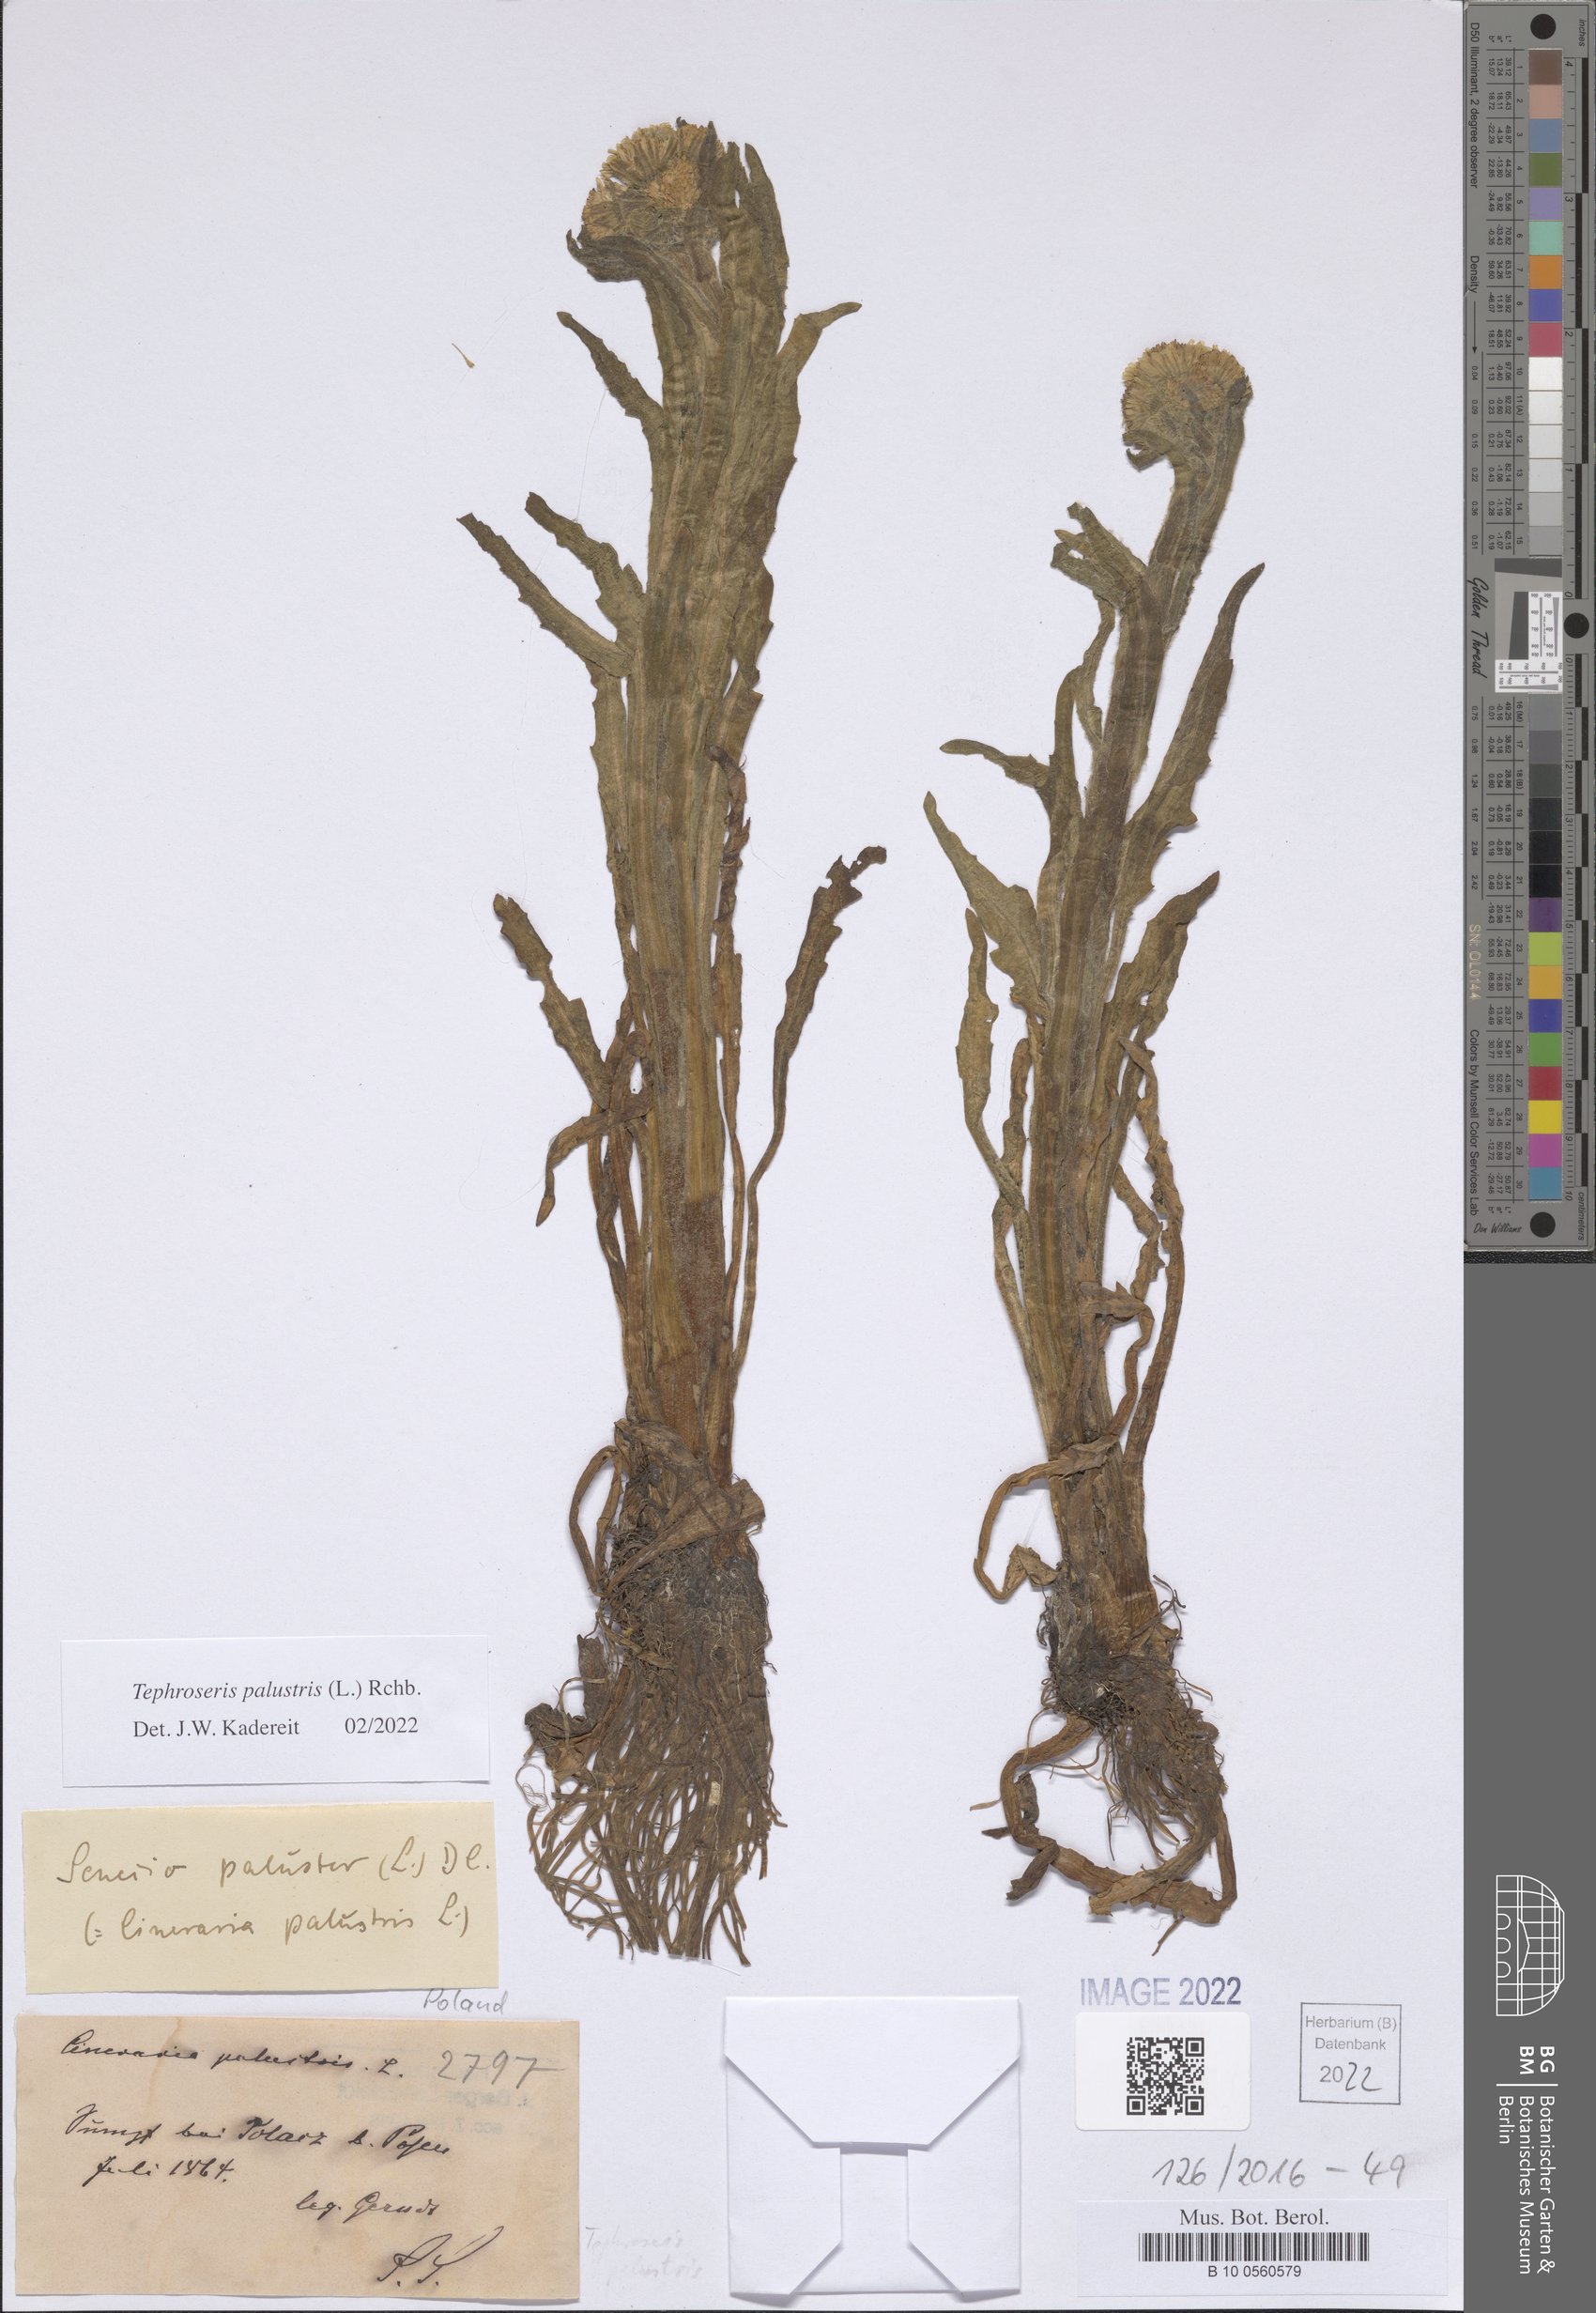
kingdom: Plantae
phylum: Tracheophyta
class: Magnoliopsida
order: Asterales
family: Asteraceae
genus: Tephroseris
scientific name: Tephroseris palustris
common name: Marsh fleawort
